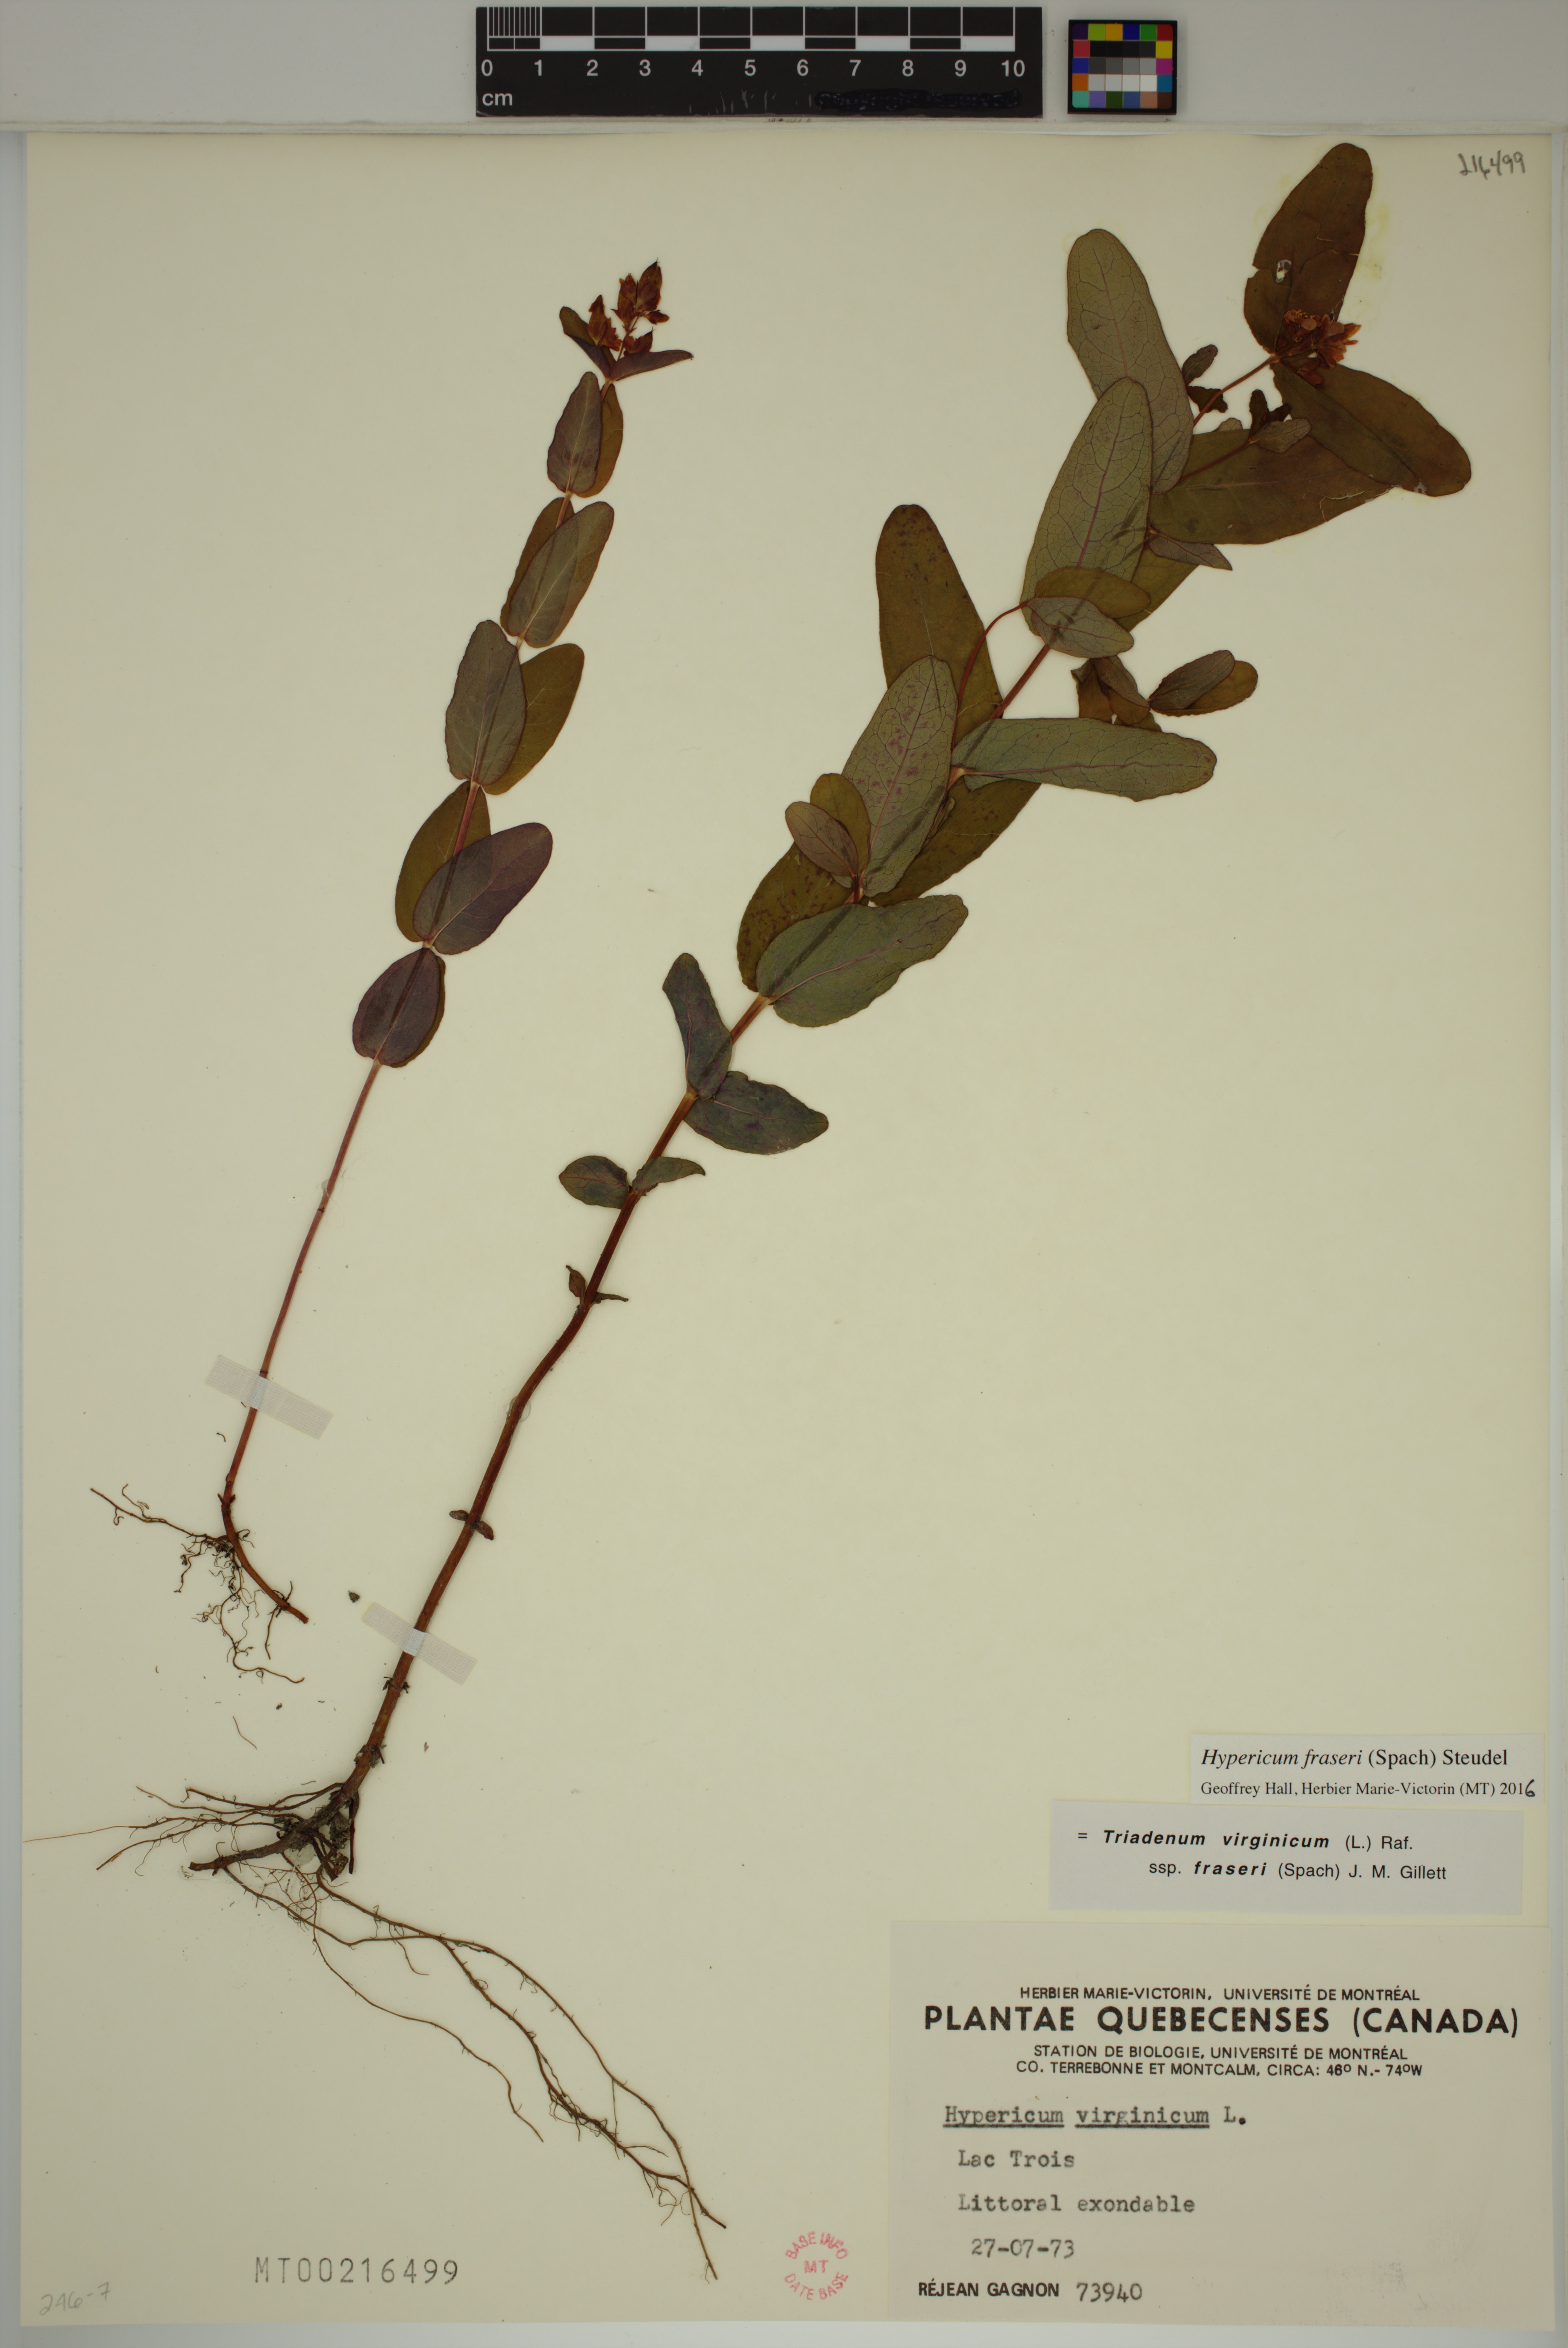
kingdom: Plantae
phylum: Tracheophyta
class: Magnoliopsida
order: Malpighiales
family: Hypericaceae
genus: Triadenum
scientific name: Triadenum fraseri
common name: Fraser's marsh st. johnswort
